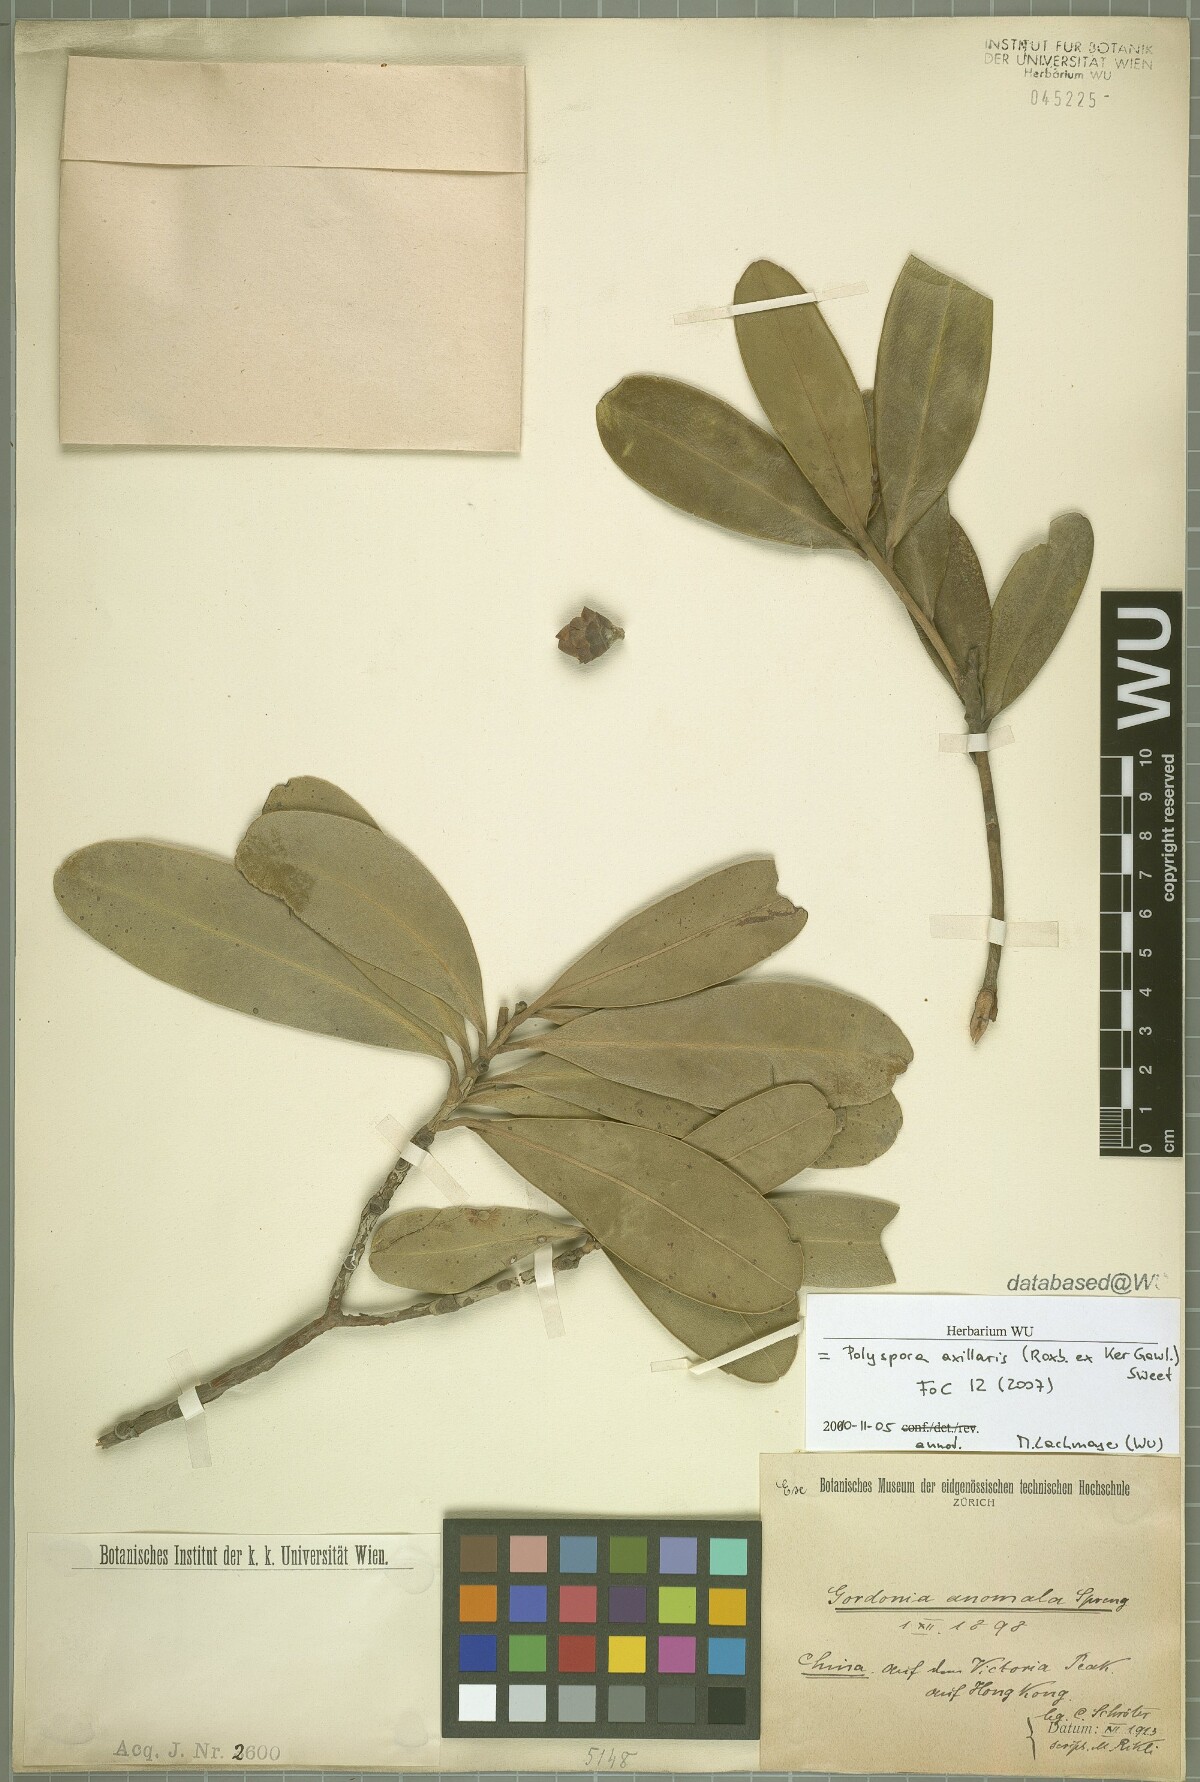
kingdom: Plantae
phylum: Tracheophyta
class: Magnoliopsida
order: Ericales
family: Theaceae
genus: Polyspora
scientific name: Polyspora axillaris
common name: Fried egg tree
